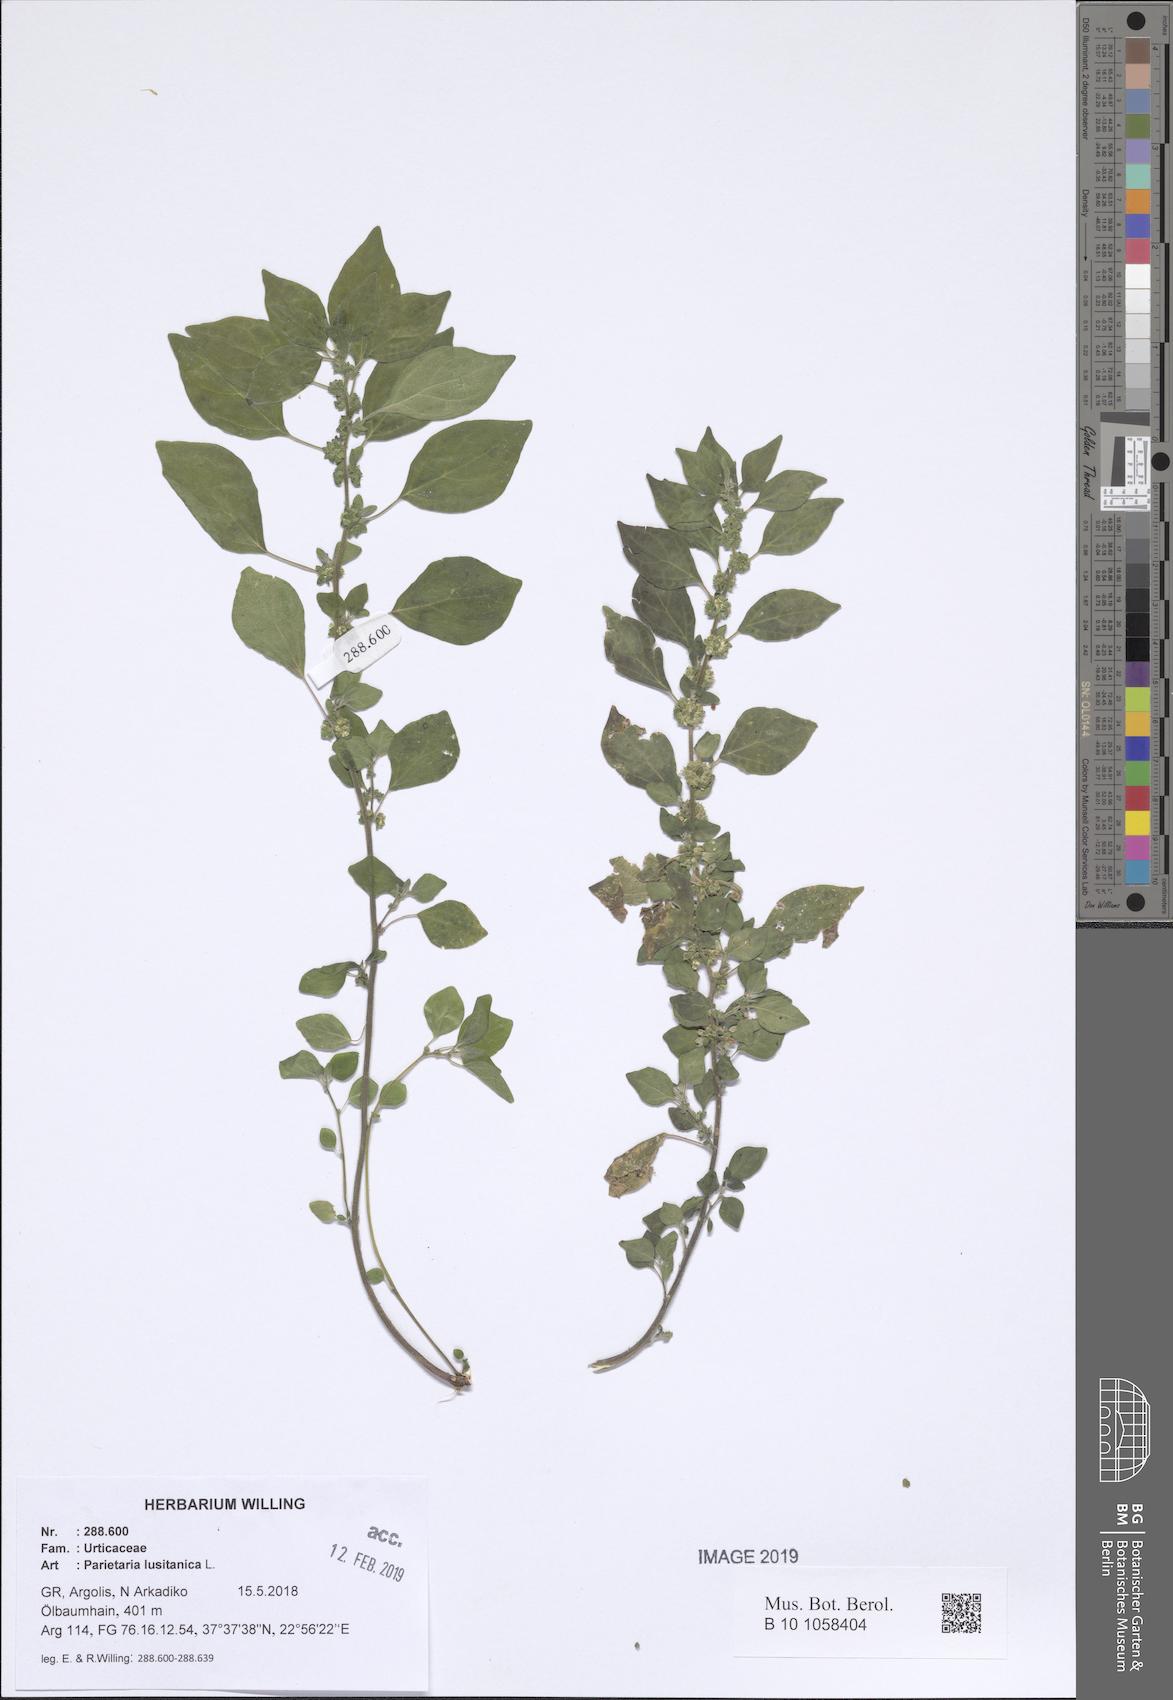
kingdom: Plantae
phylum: Tracheophyta
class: Magnoliopsida
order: Rosales
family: Urticaceae
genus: Parietaria
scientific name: Parietaria lusitanica
